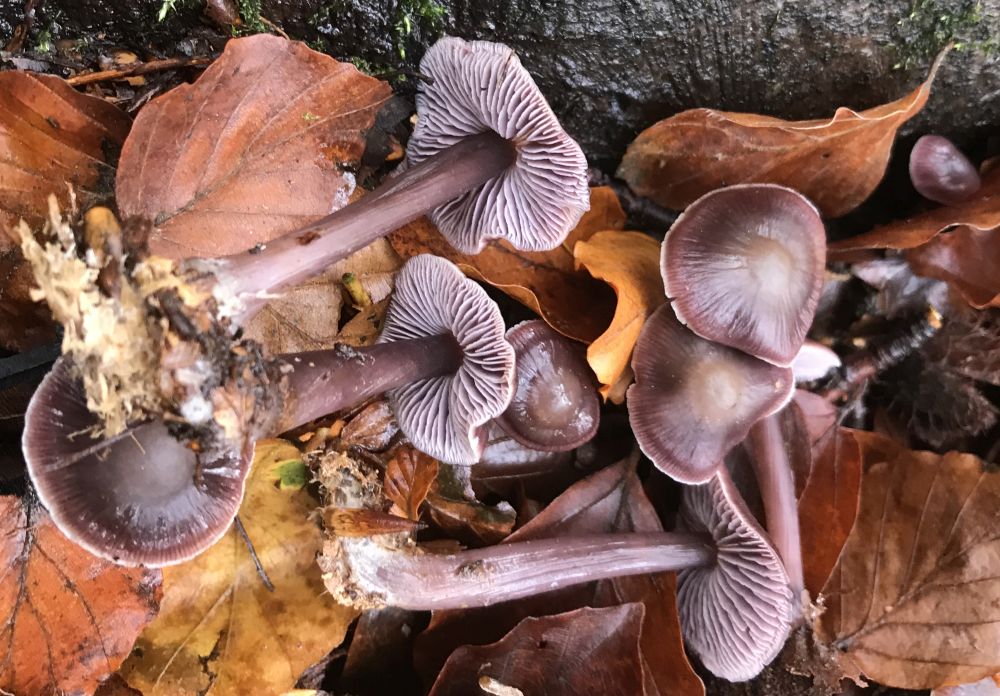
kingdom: Fungi
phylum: Basidiomycota
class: Agaricomycetes
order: Agaricales
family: Mycenaceae
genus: Prunulus
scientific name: Prunulus diosmus
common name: tobaks-huesvamp
